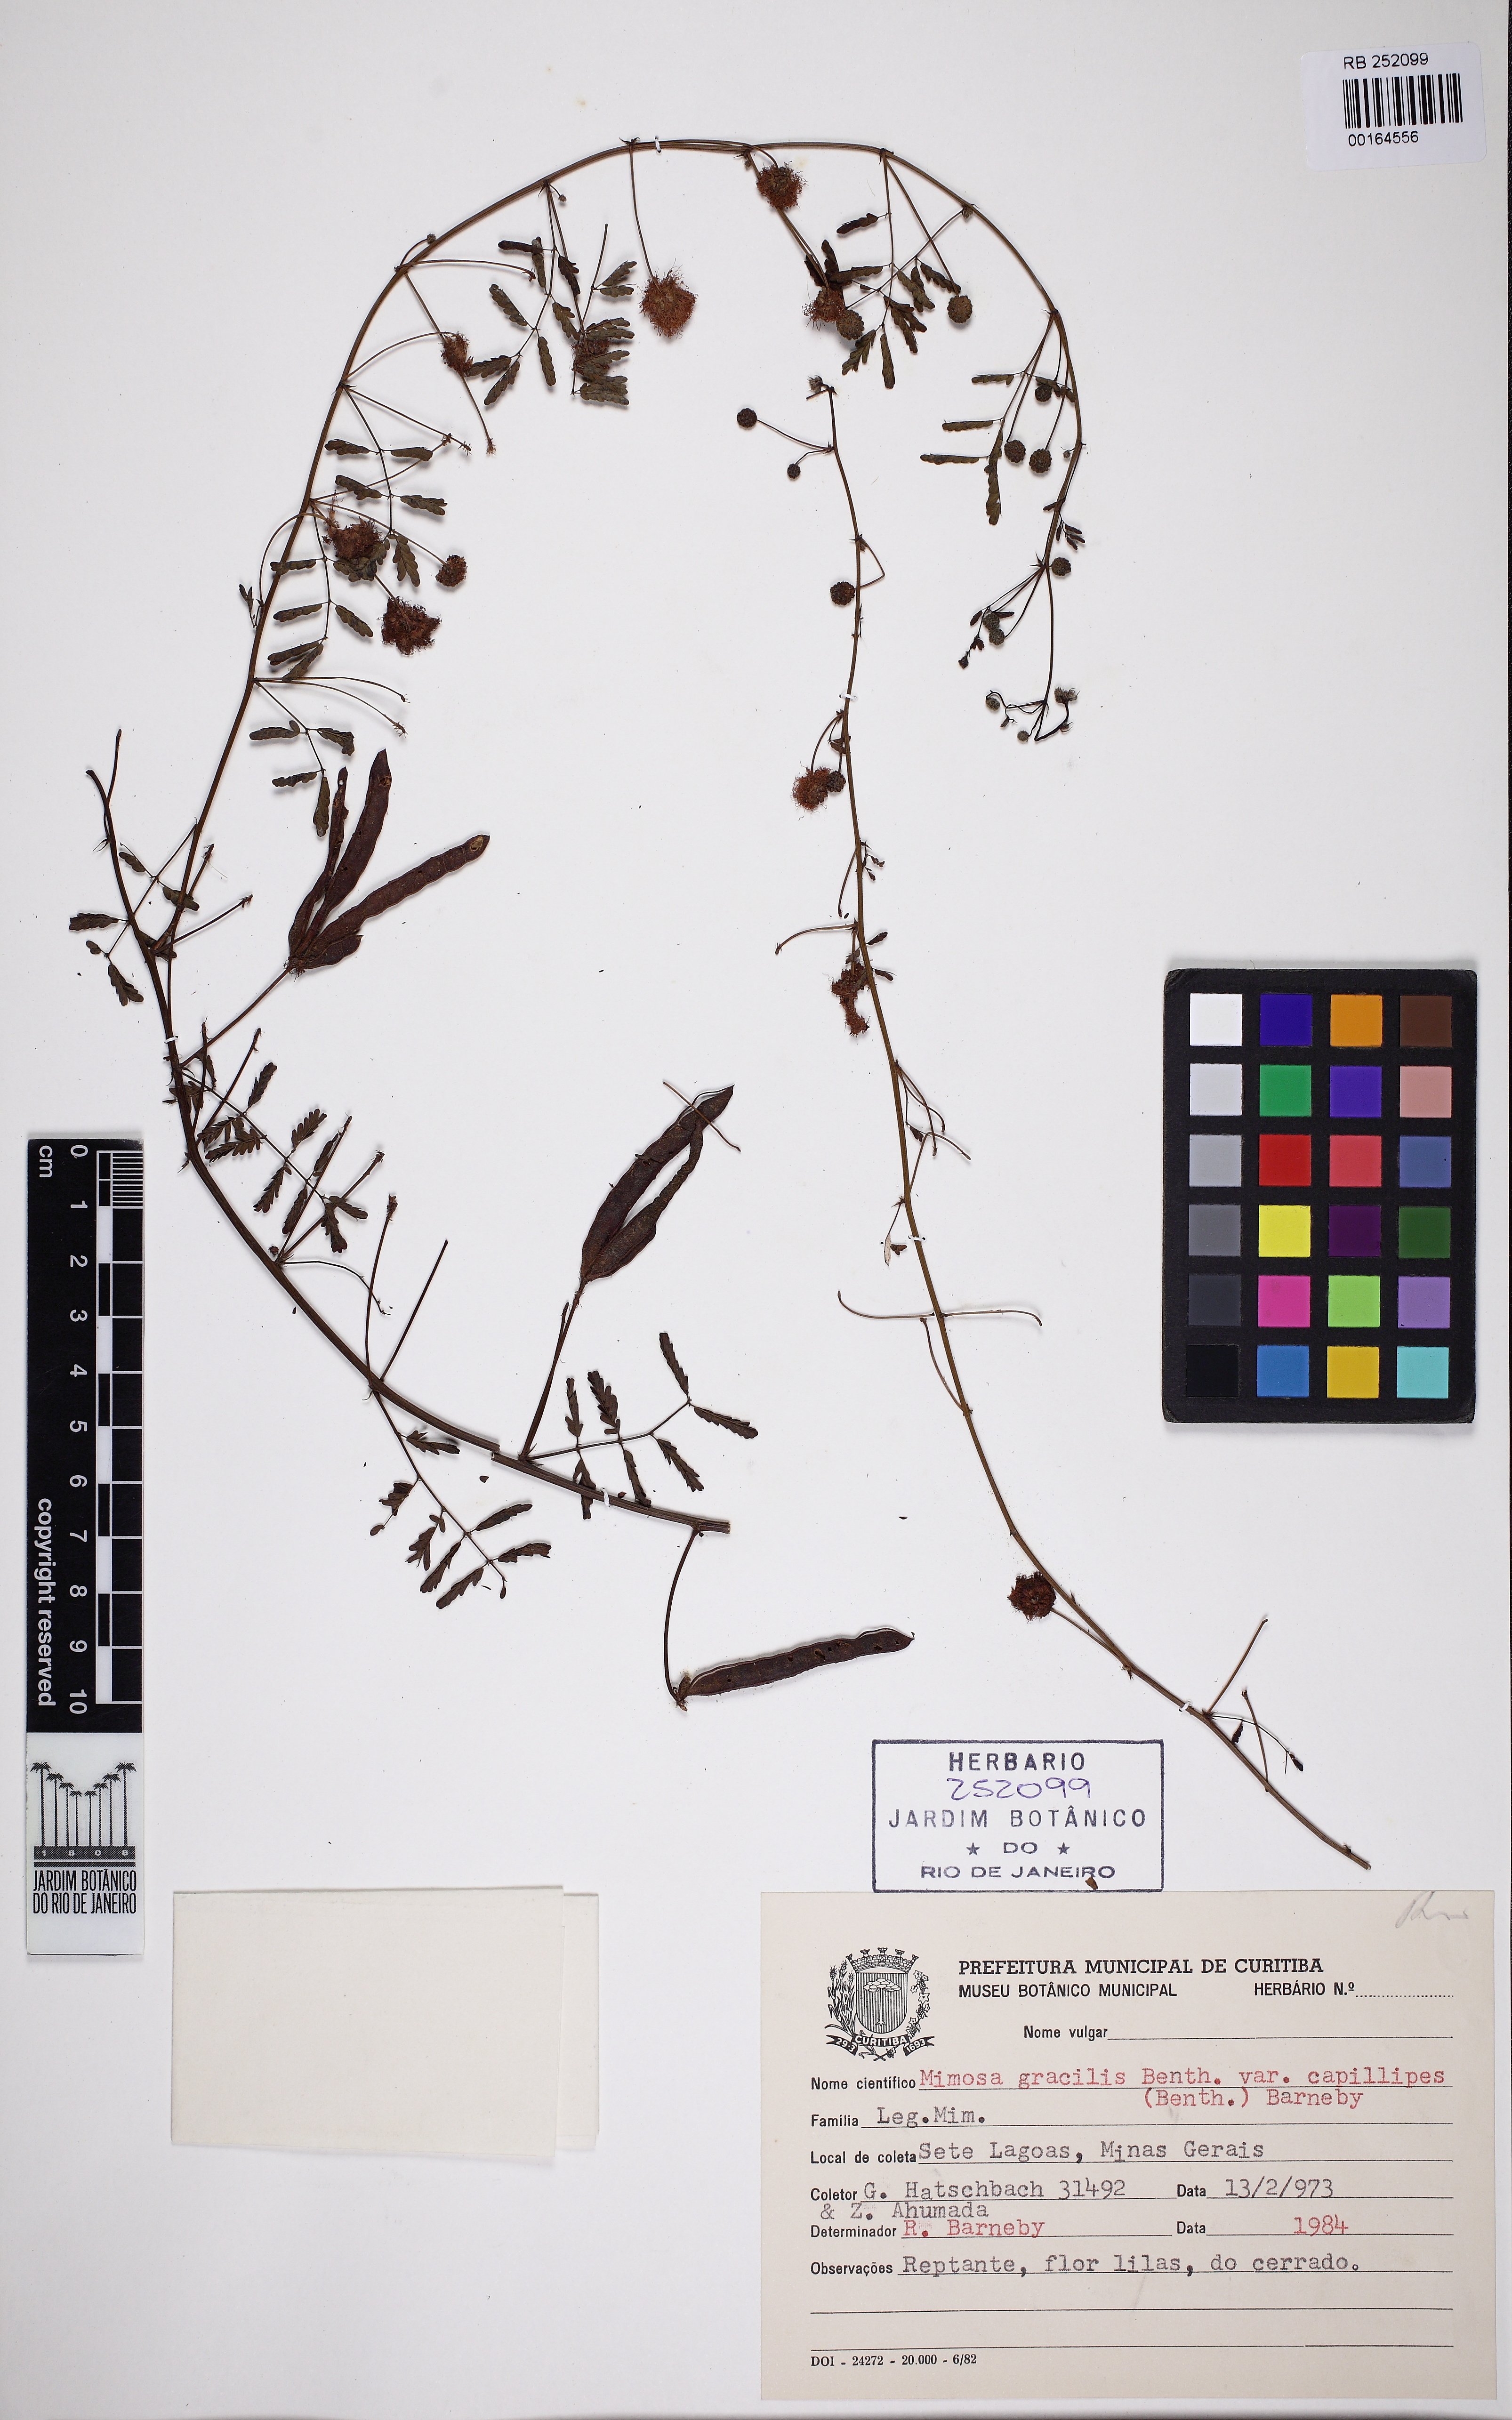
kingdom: Plantae
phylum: Tracheophyta
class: Magnoliopsida
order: Fabales
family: Fabaceae
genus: Mimosa
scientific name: Mimosa gracilis
